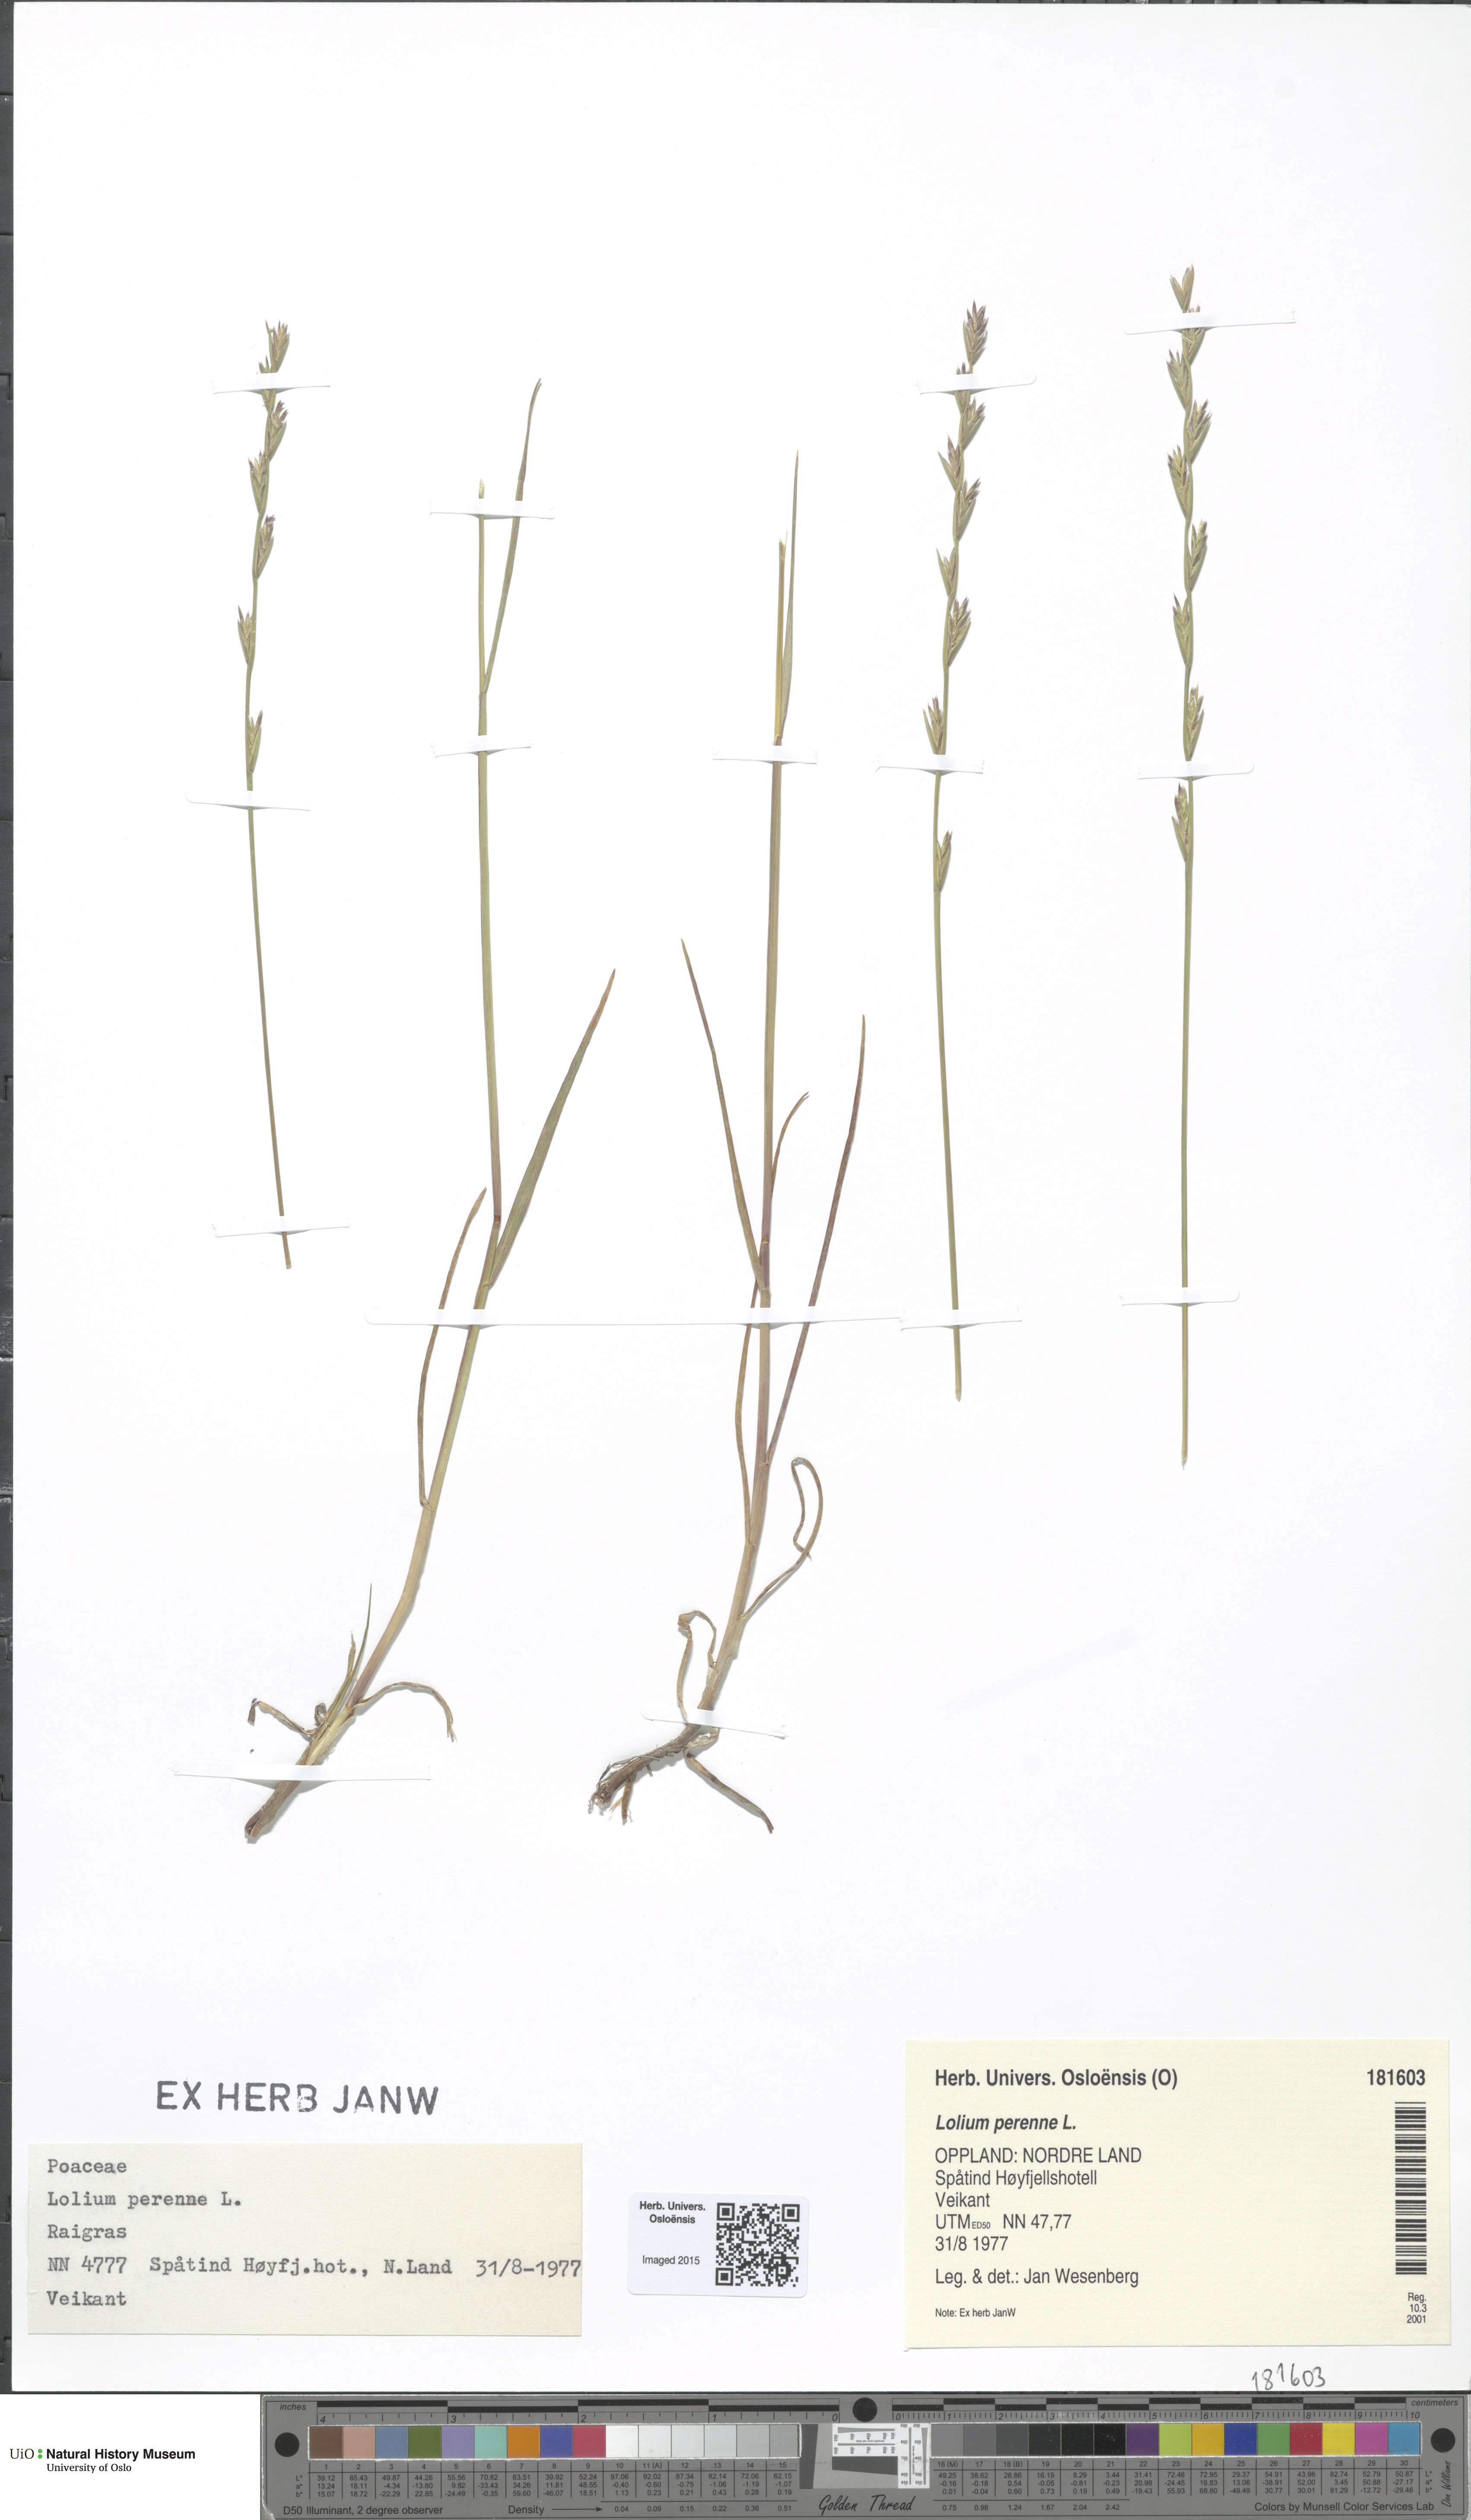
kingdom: Plantae
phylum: Tracheophyta
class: Liliopsida
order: Poales
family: Poaceae
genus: Lolium
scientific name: Lolium perenne
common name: Perennial ryegrass
